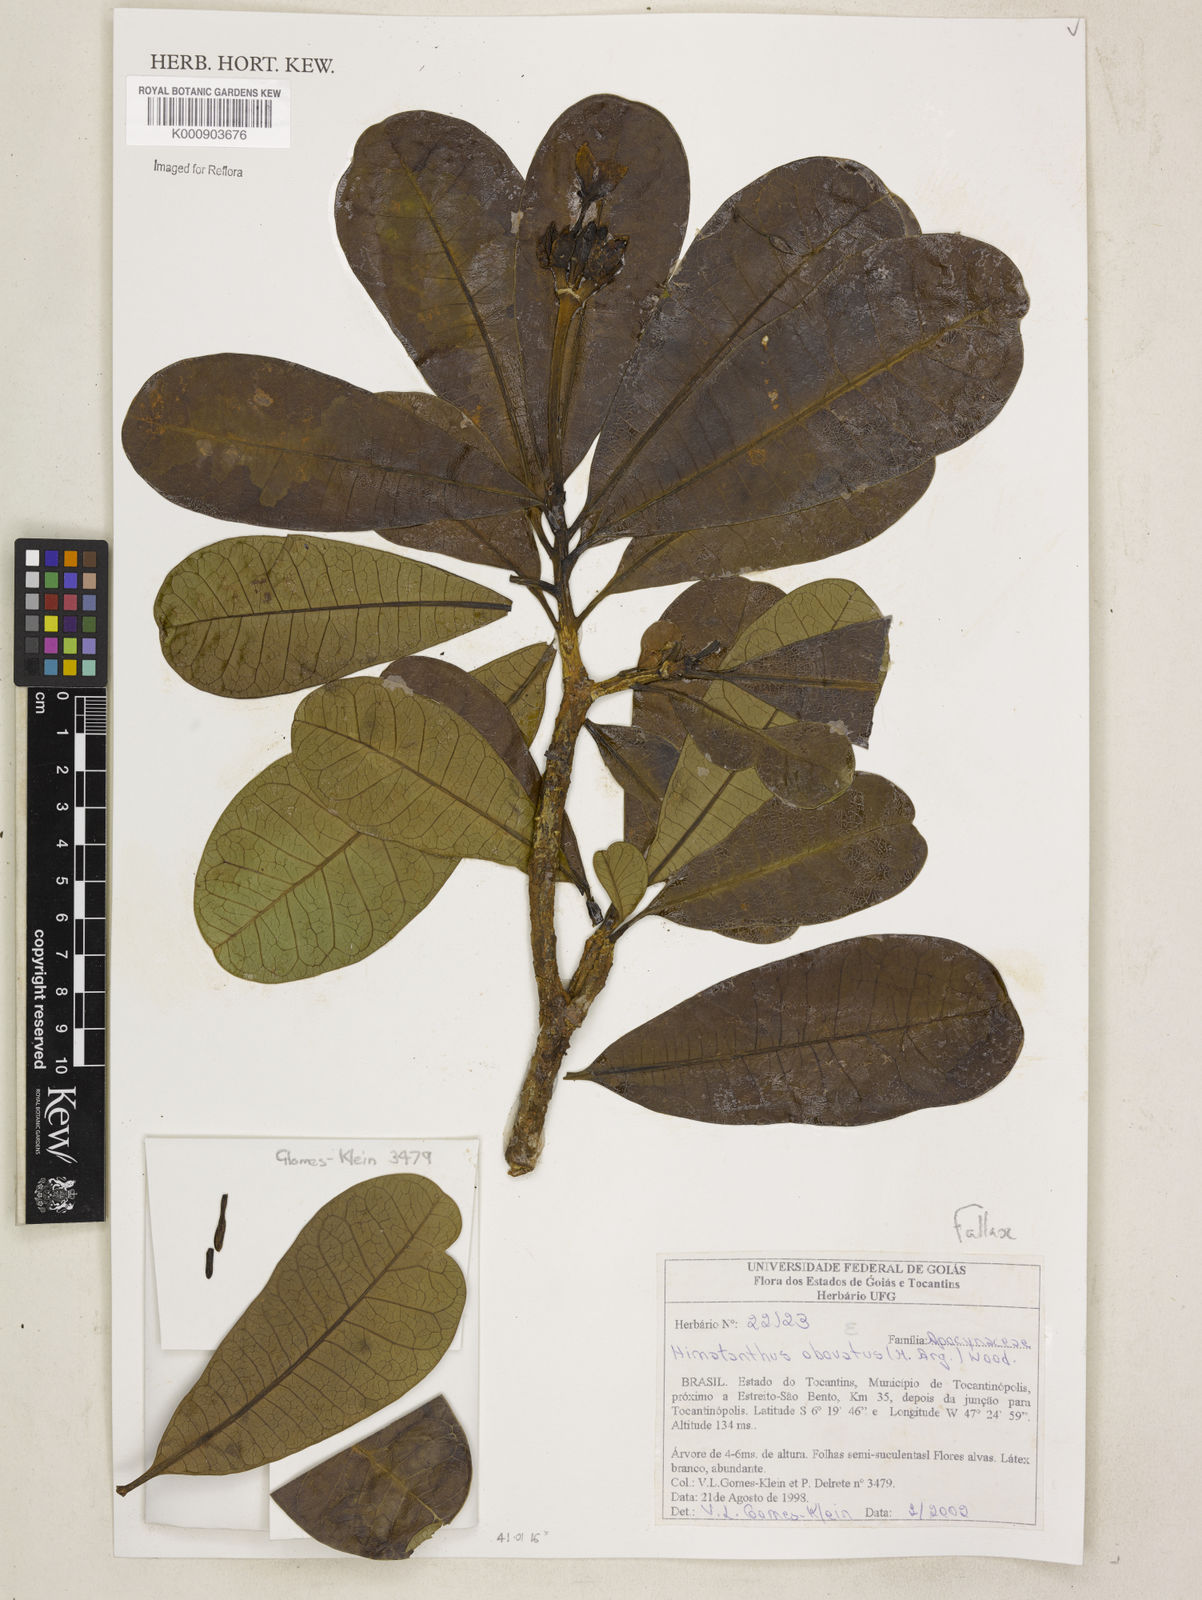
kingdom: Plantae
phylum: Tracheophyta
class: Magnoliopsida
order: Gentianales
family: Apocynaceae
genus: Himatanthus
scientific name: Himatanthus
